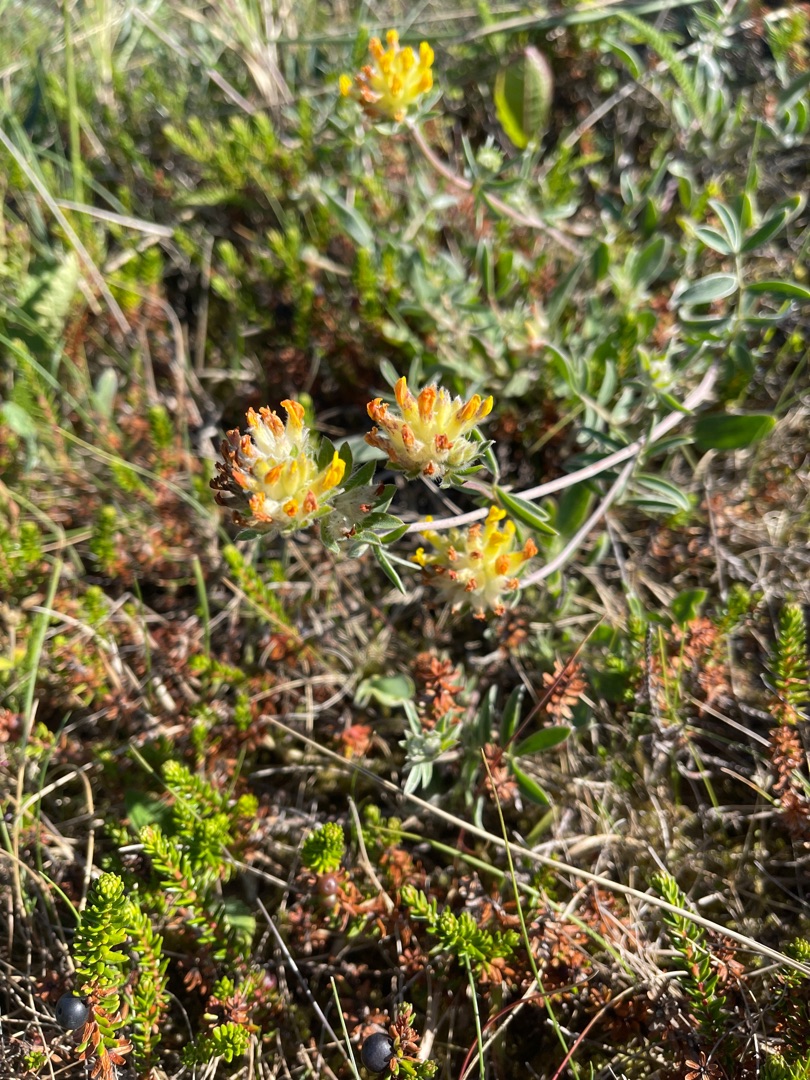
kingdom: Plantae
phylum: Tracheophyta
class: Magnoliopsida
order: Fabales
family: Fabaceae
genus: Anthyllis
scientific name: Anthyllis vulneraria
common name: Rundbælg
